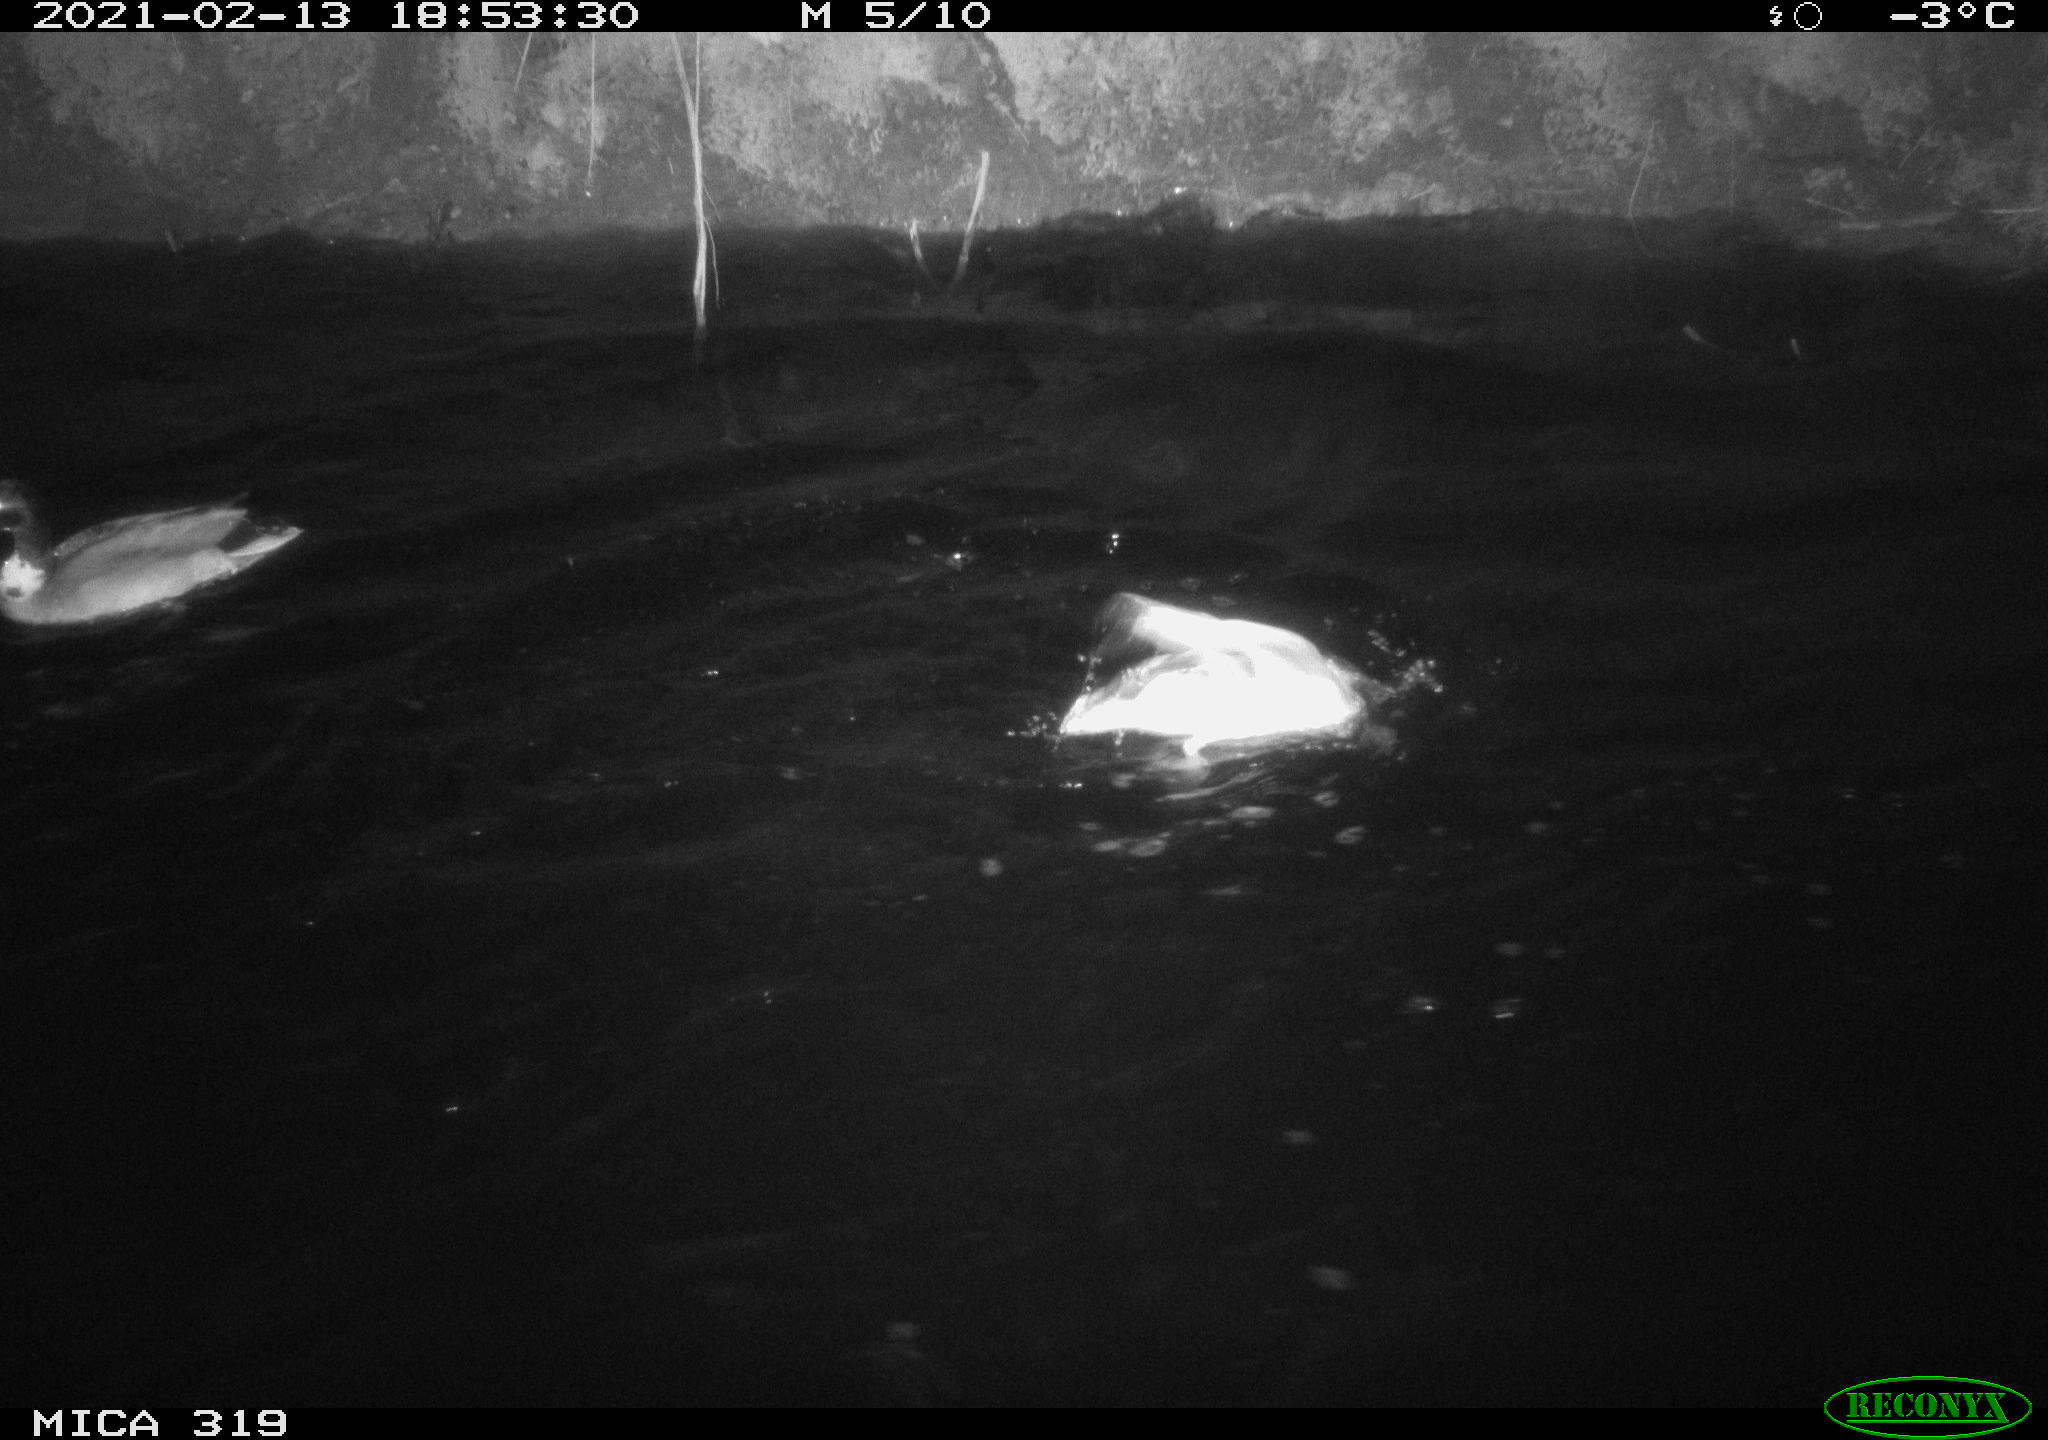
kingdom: Animalia
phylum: Chordata
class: Aves
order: Anseriformes
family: Anatidae
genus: Anas
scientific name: Anas platyrhynchos
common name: Mallard
